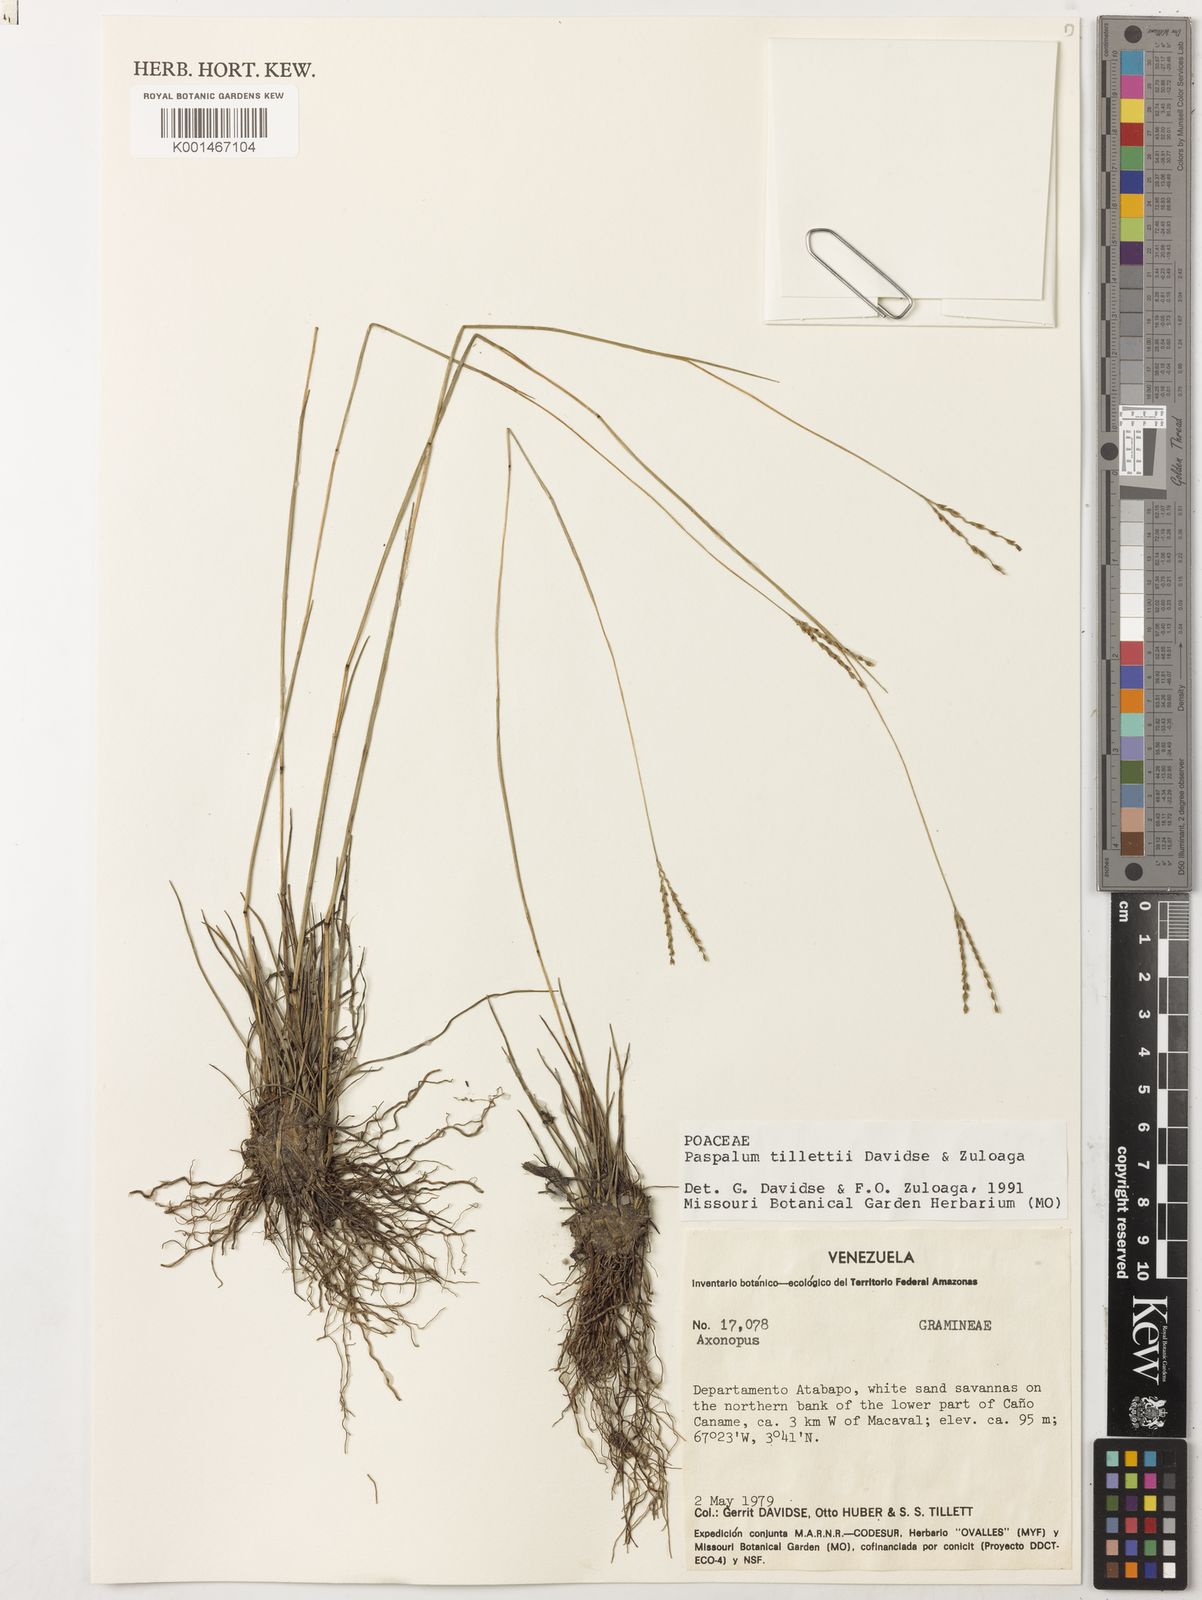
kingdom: Plantae
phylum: Tracheophyta
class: Liliopsida
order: Poales
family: Poaceae
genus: Paspalum
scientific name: Paspalum tillettii
